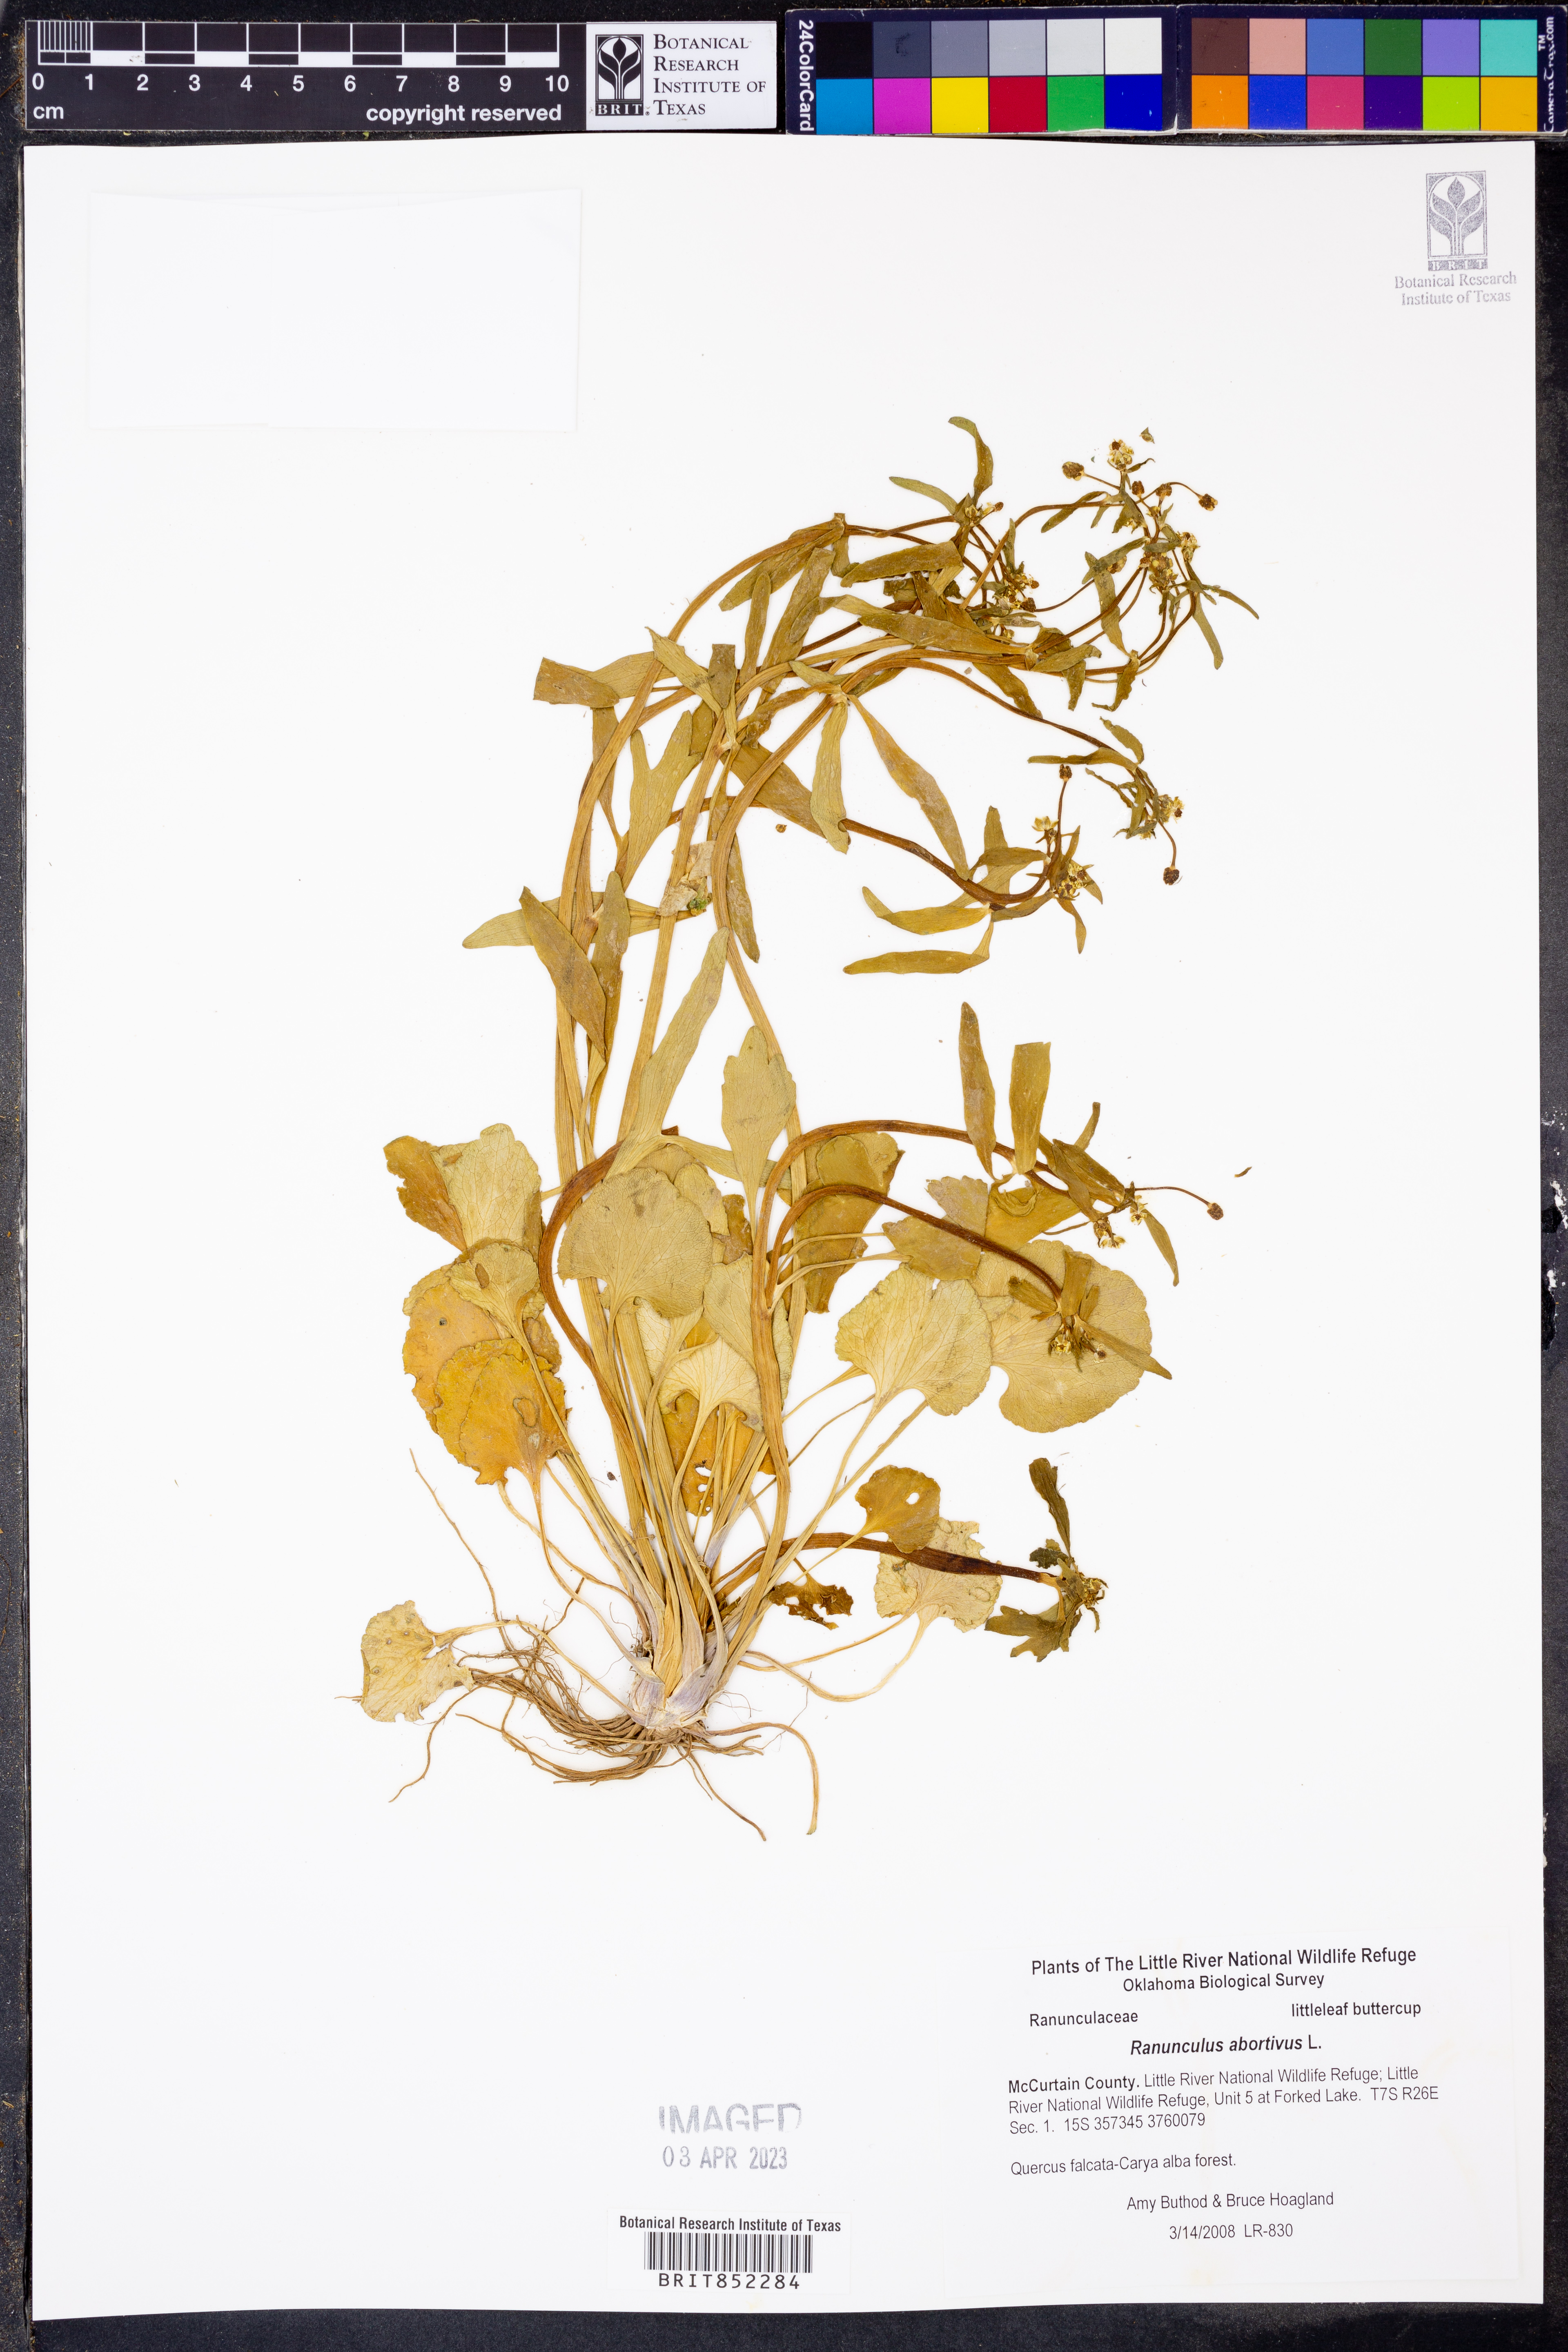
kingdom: Plantae
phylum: Tracheophyta
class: Magnoliopsida
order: Ranunculales
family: Ranunculaceae
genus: Ranunculus
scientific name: Ranunculus abortivus
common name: Early wood buttercup
